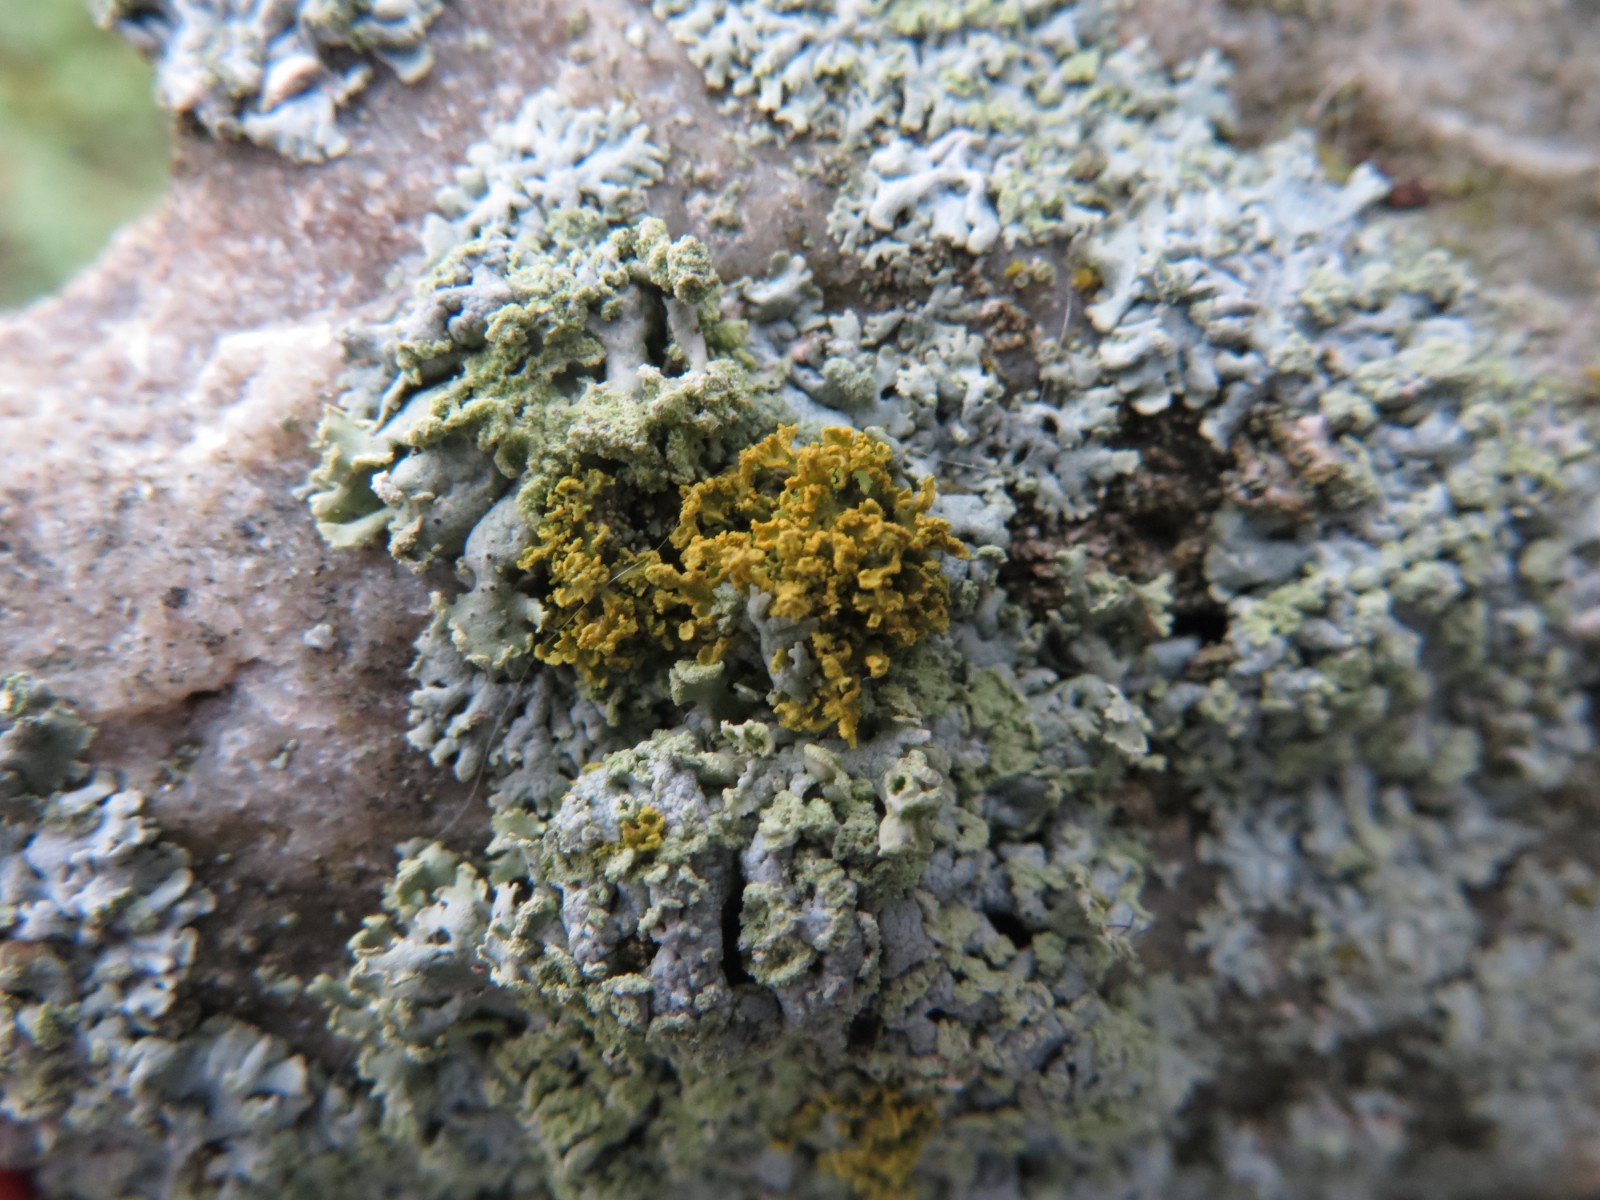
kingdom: Fungi
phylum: Ascomycota
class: Lecanoromycetes
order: Teloschistales
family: Teloschistaceae
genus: Polycauliona
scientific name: Polycauliona candelaria
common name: tue-orangelav
